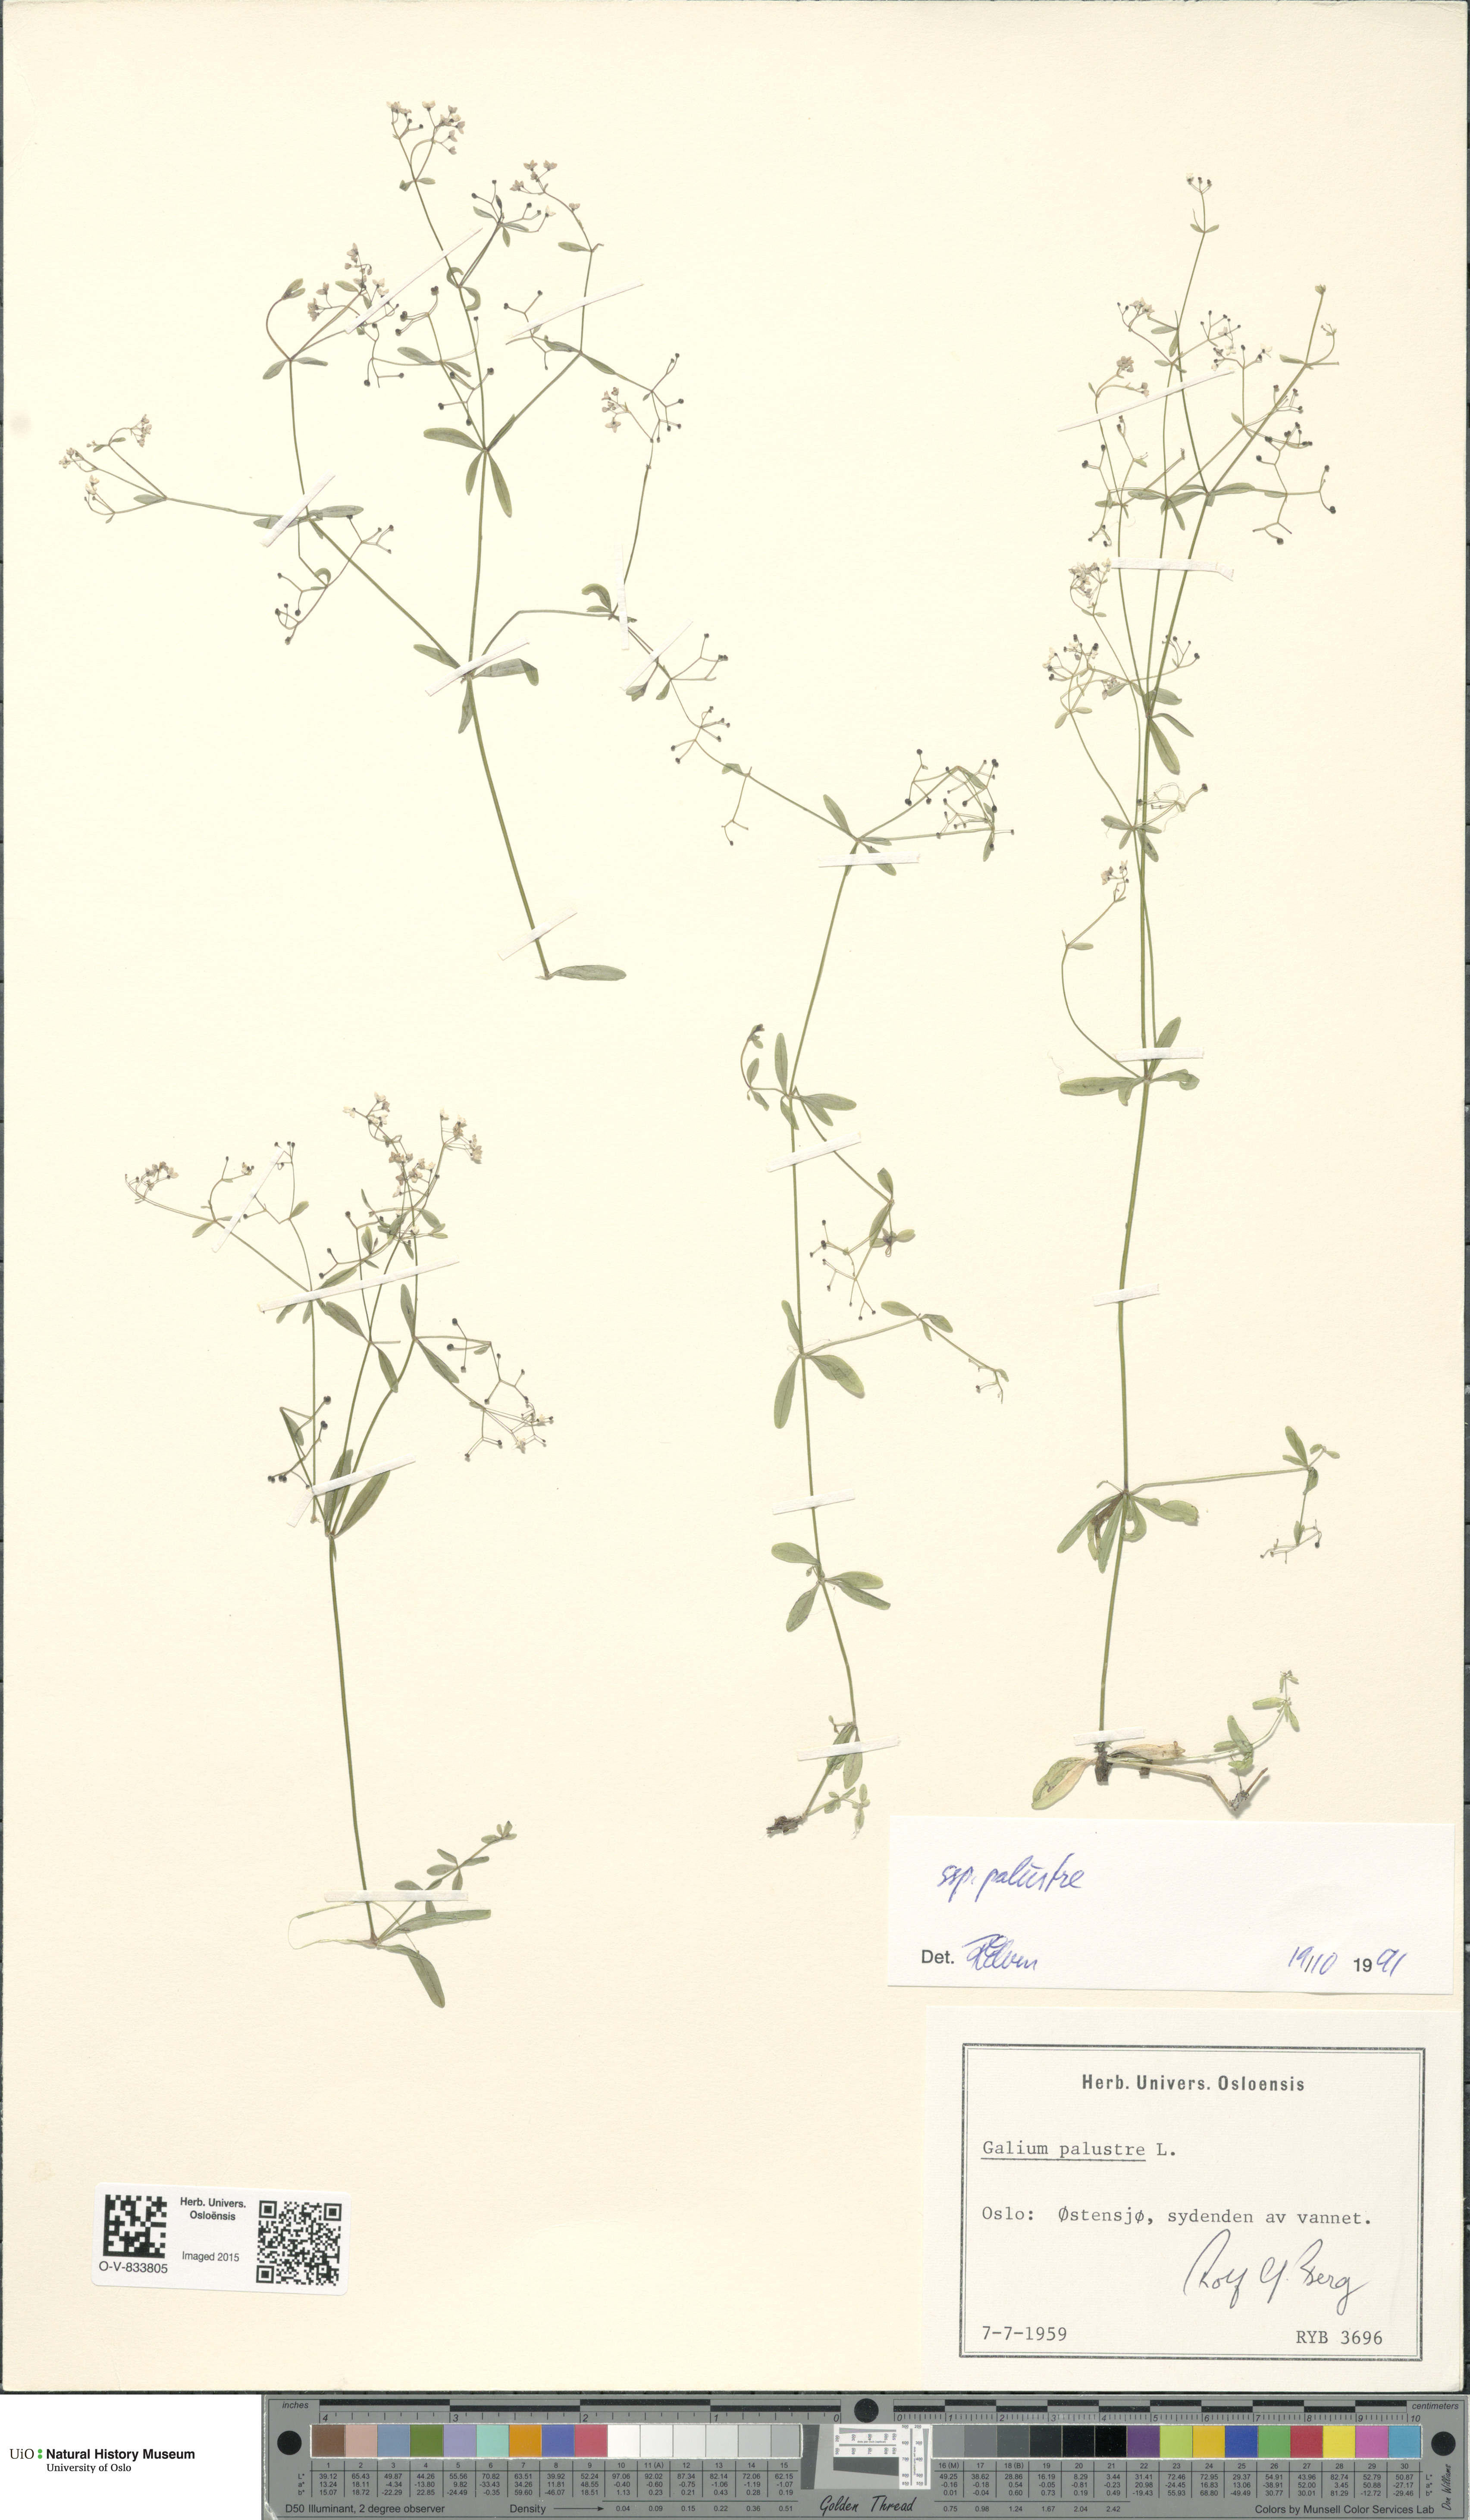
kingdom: Plantae
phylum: Tracheophyta
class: Magnoliopsida
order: Gentianales
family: Rubiaceae
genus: Galium
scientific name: Galium palustre
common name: Common marsh-bedstraw
